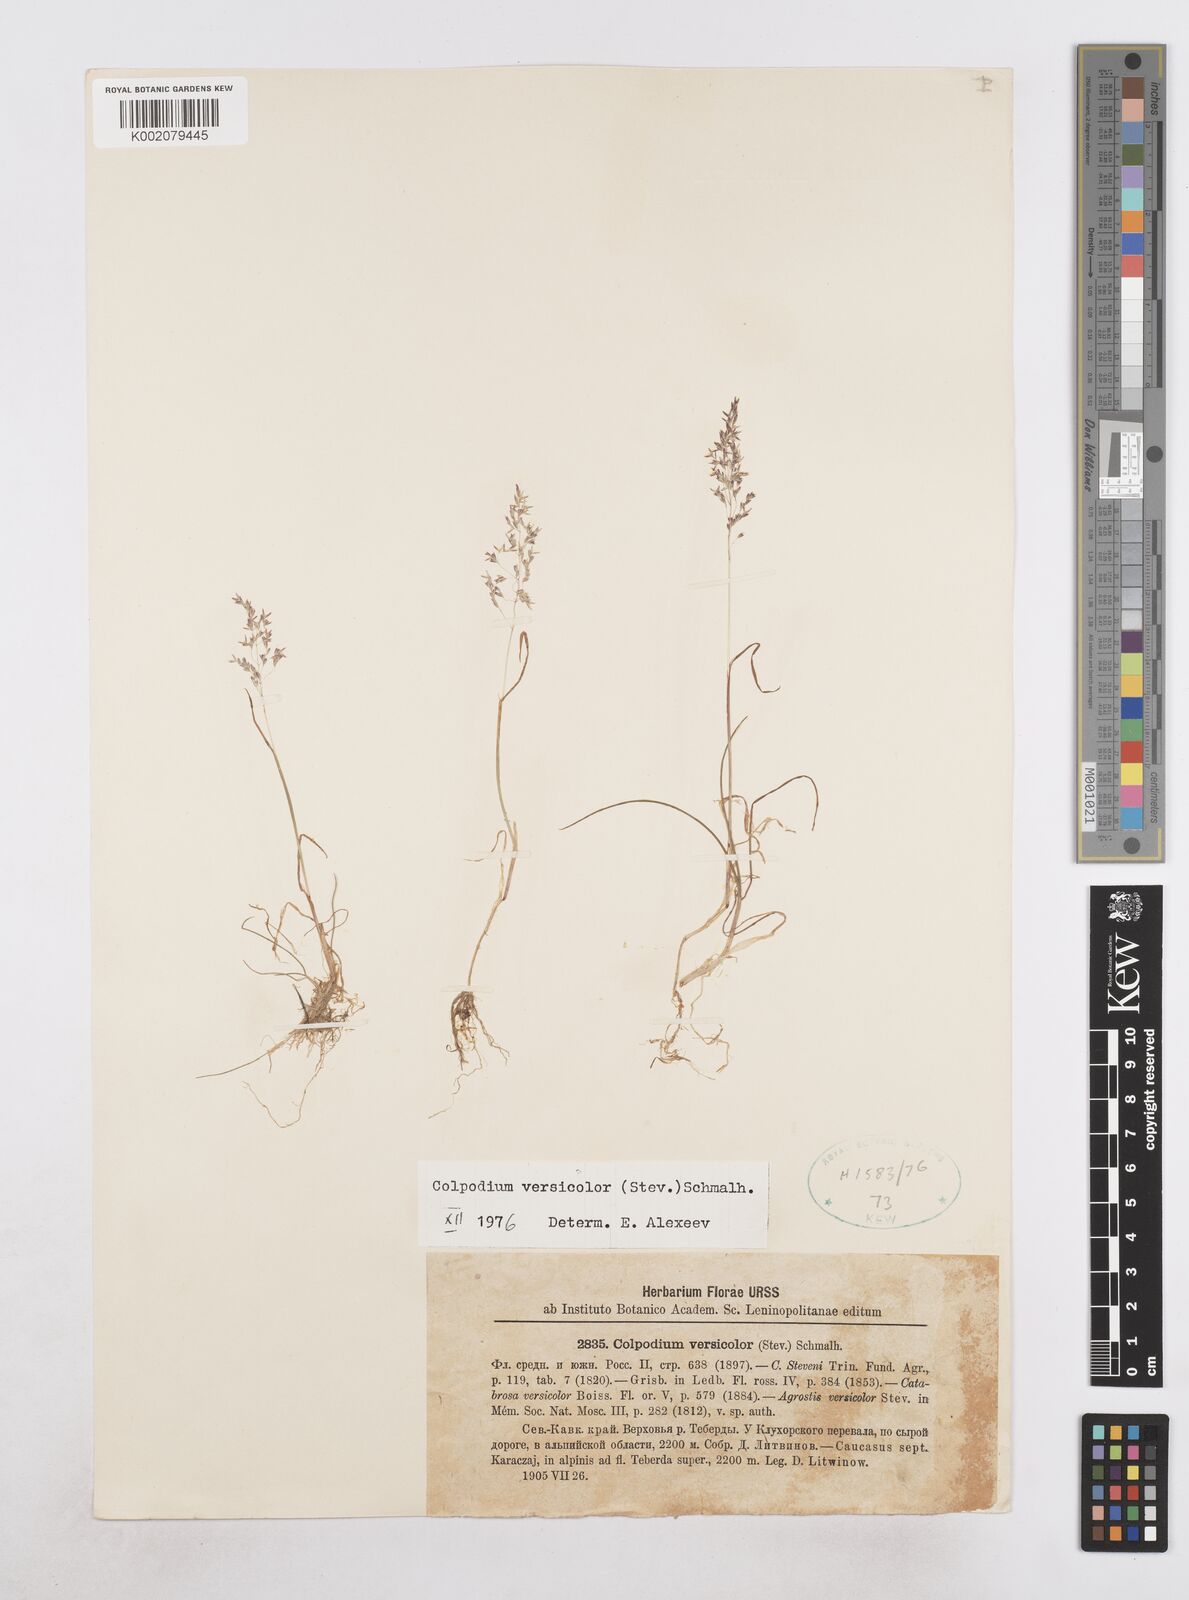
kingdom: Plantae
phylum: Tracheophyta
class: Liliopsida
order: Poales
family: Poaceae
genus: Colpodium
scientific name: Colpodium versicolor
